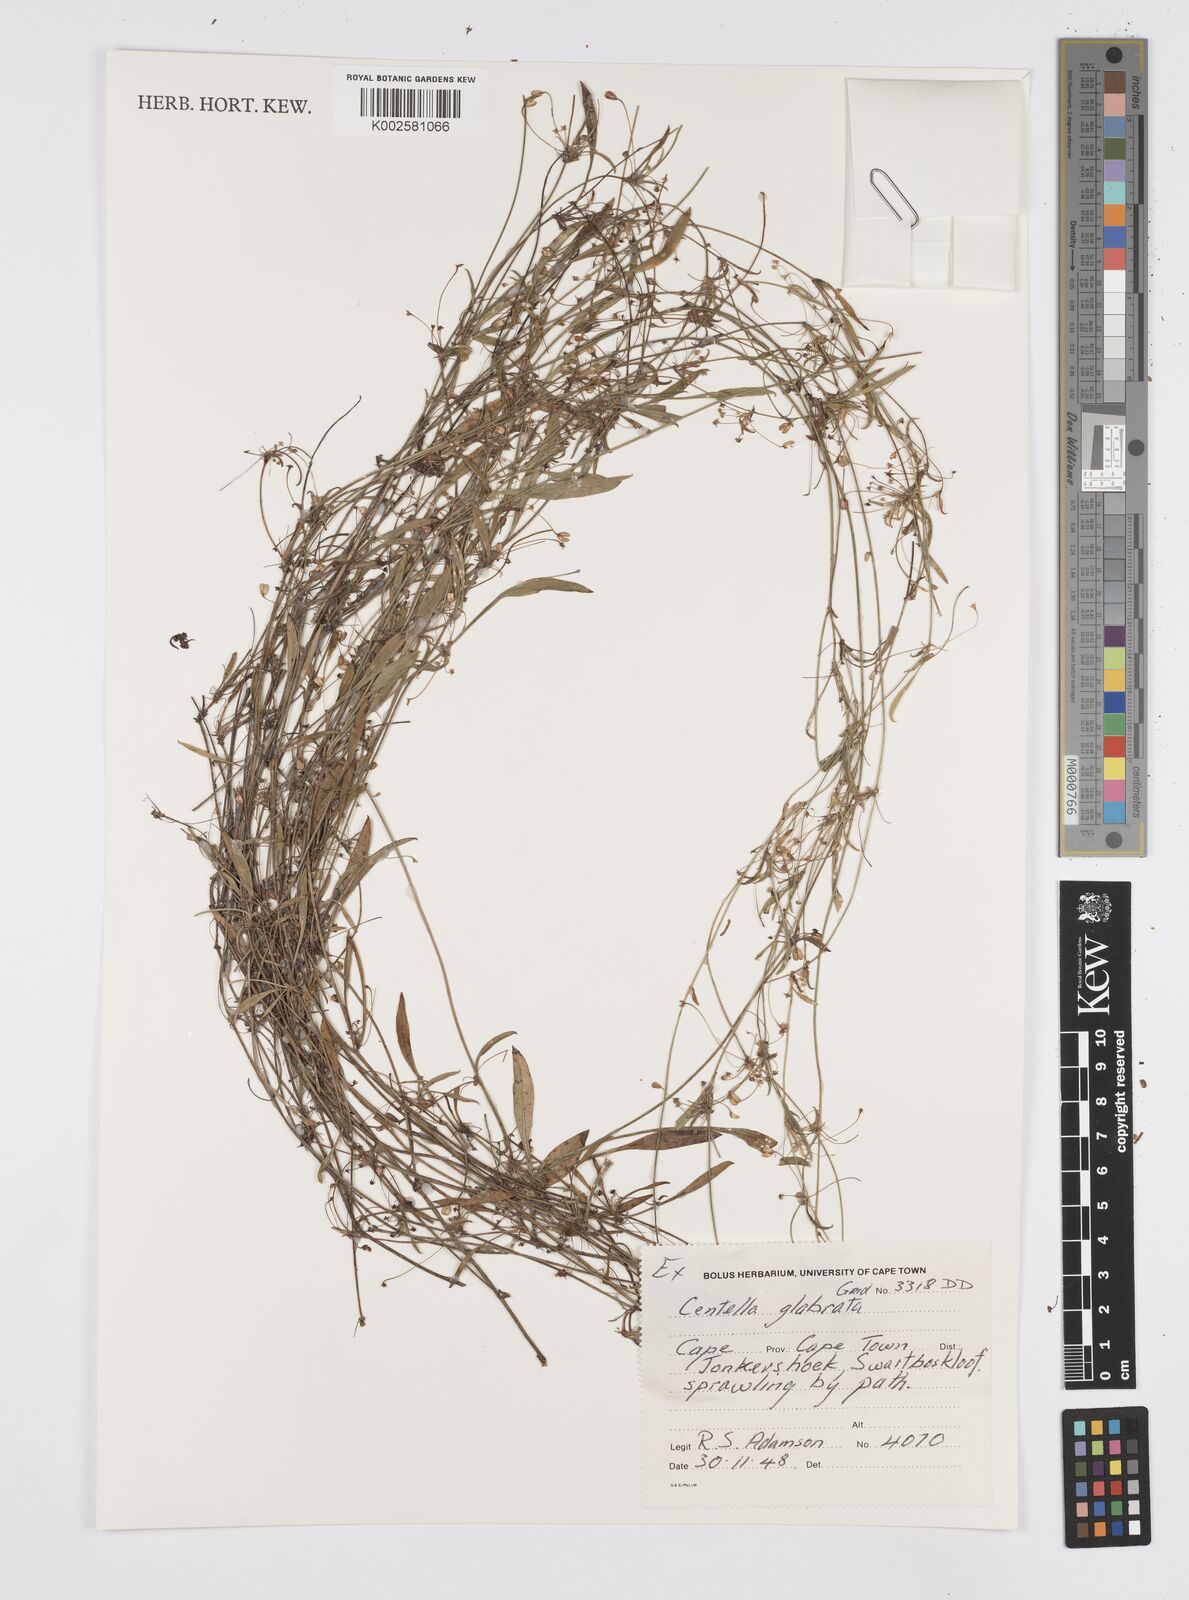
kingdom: Plantae
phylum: Tracheophyta
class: Magnoliopsida
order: Apiales
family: Apiaceae
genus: Centella
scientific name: Centella glabrata
